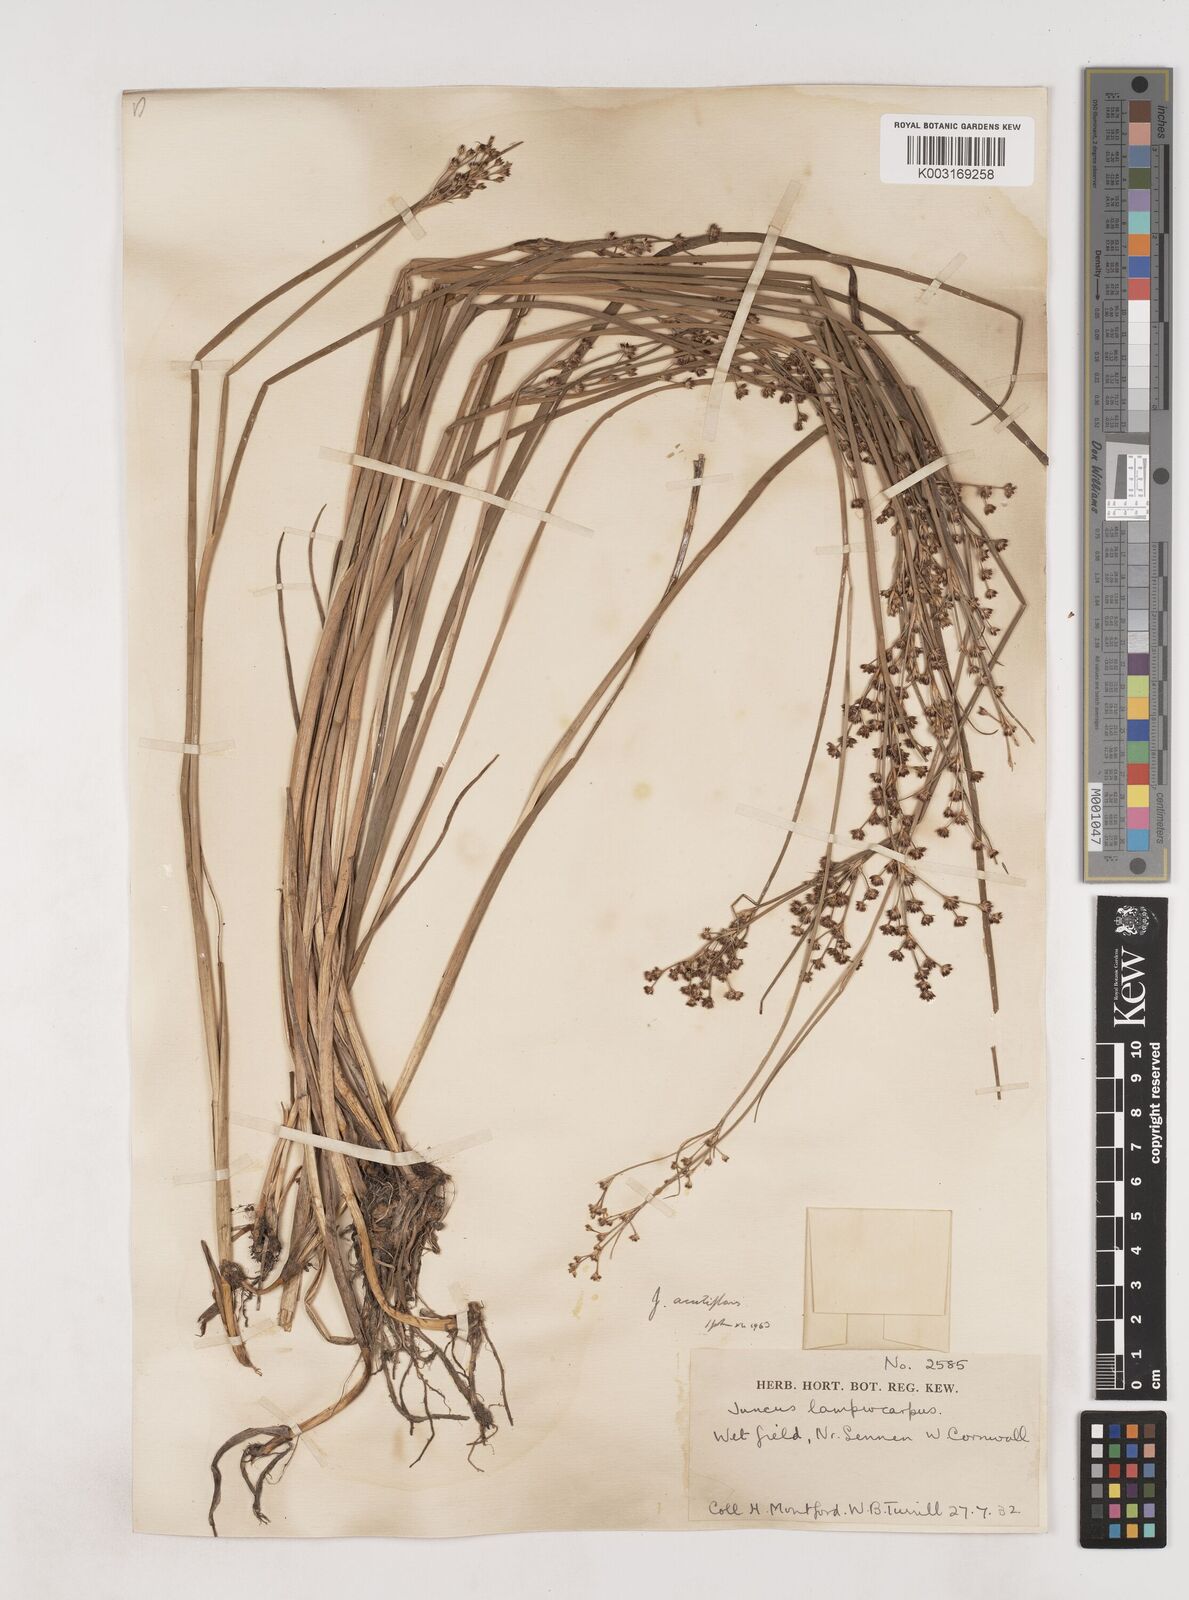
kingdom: Plantae
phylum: Tracheophyta
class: Liliopsida
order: Poales
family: Juncaceae
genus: Juncus
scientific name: Juncus acutiflorus
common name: Sharp-flowered rush
